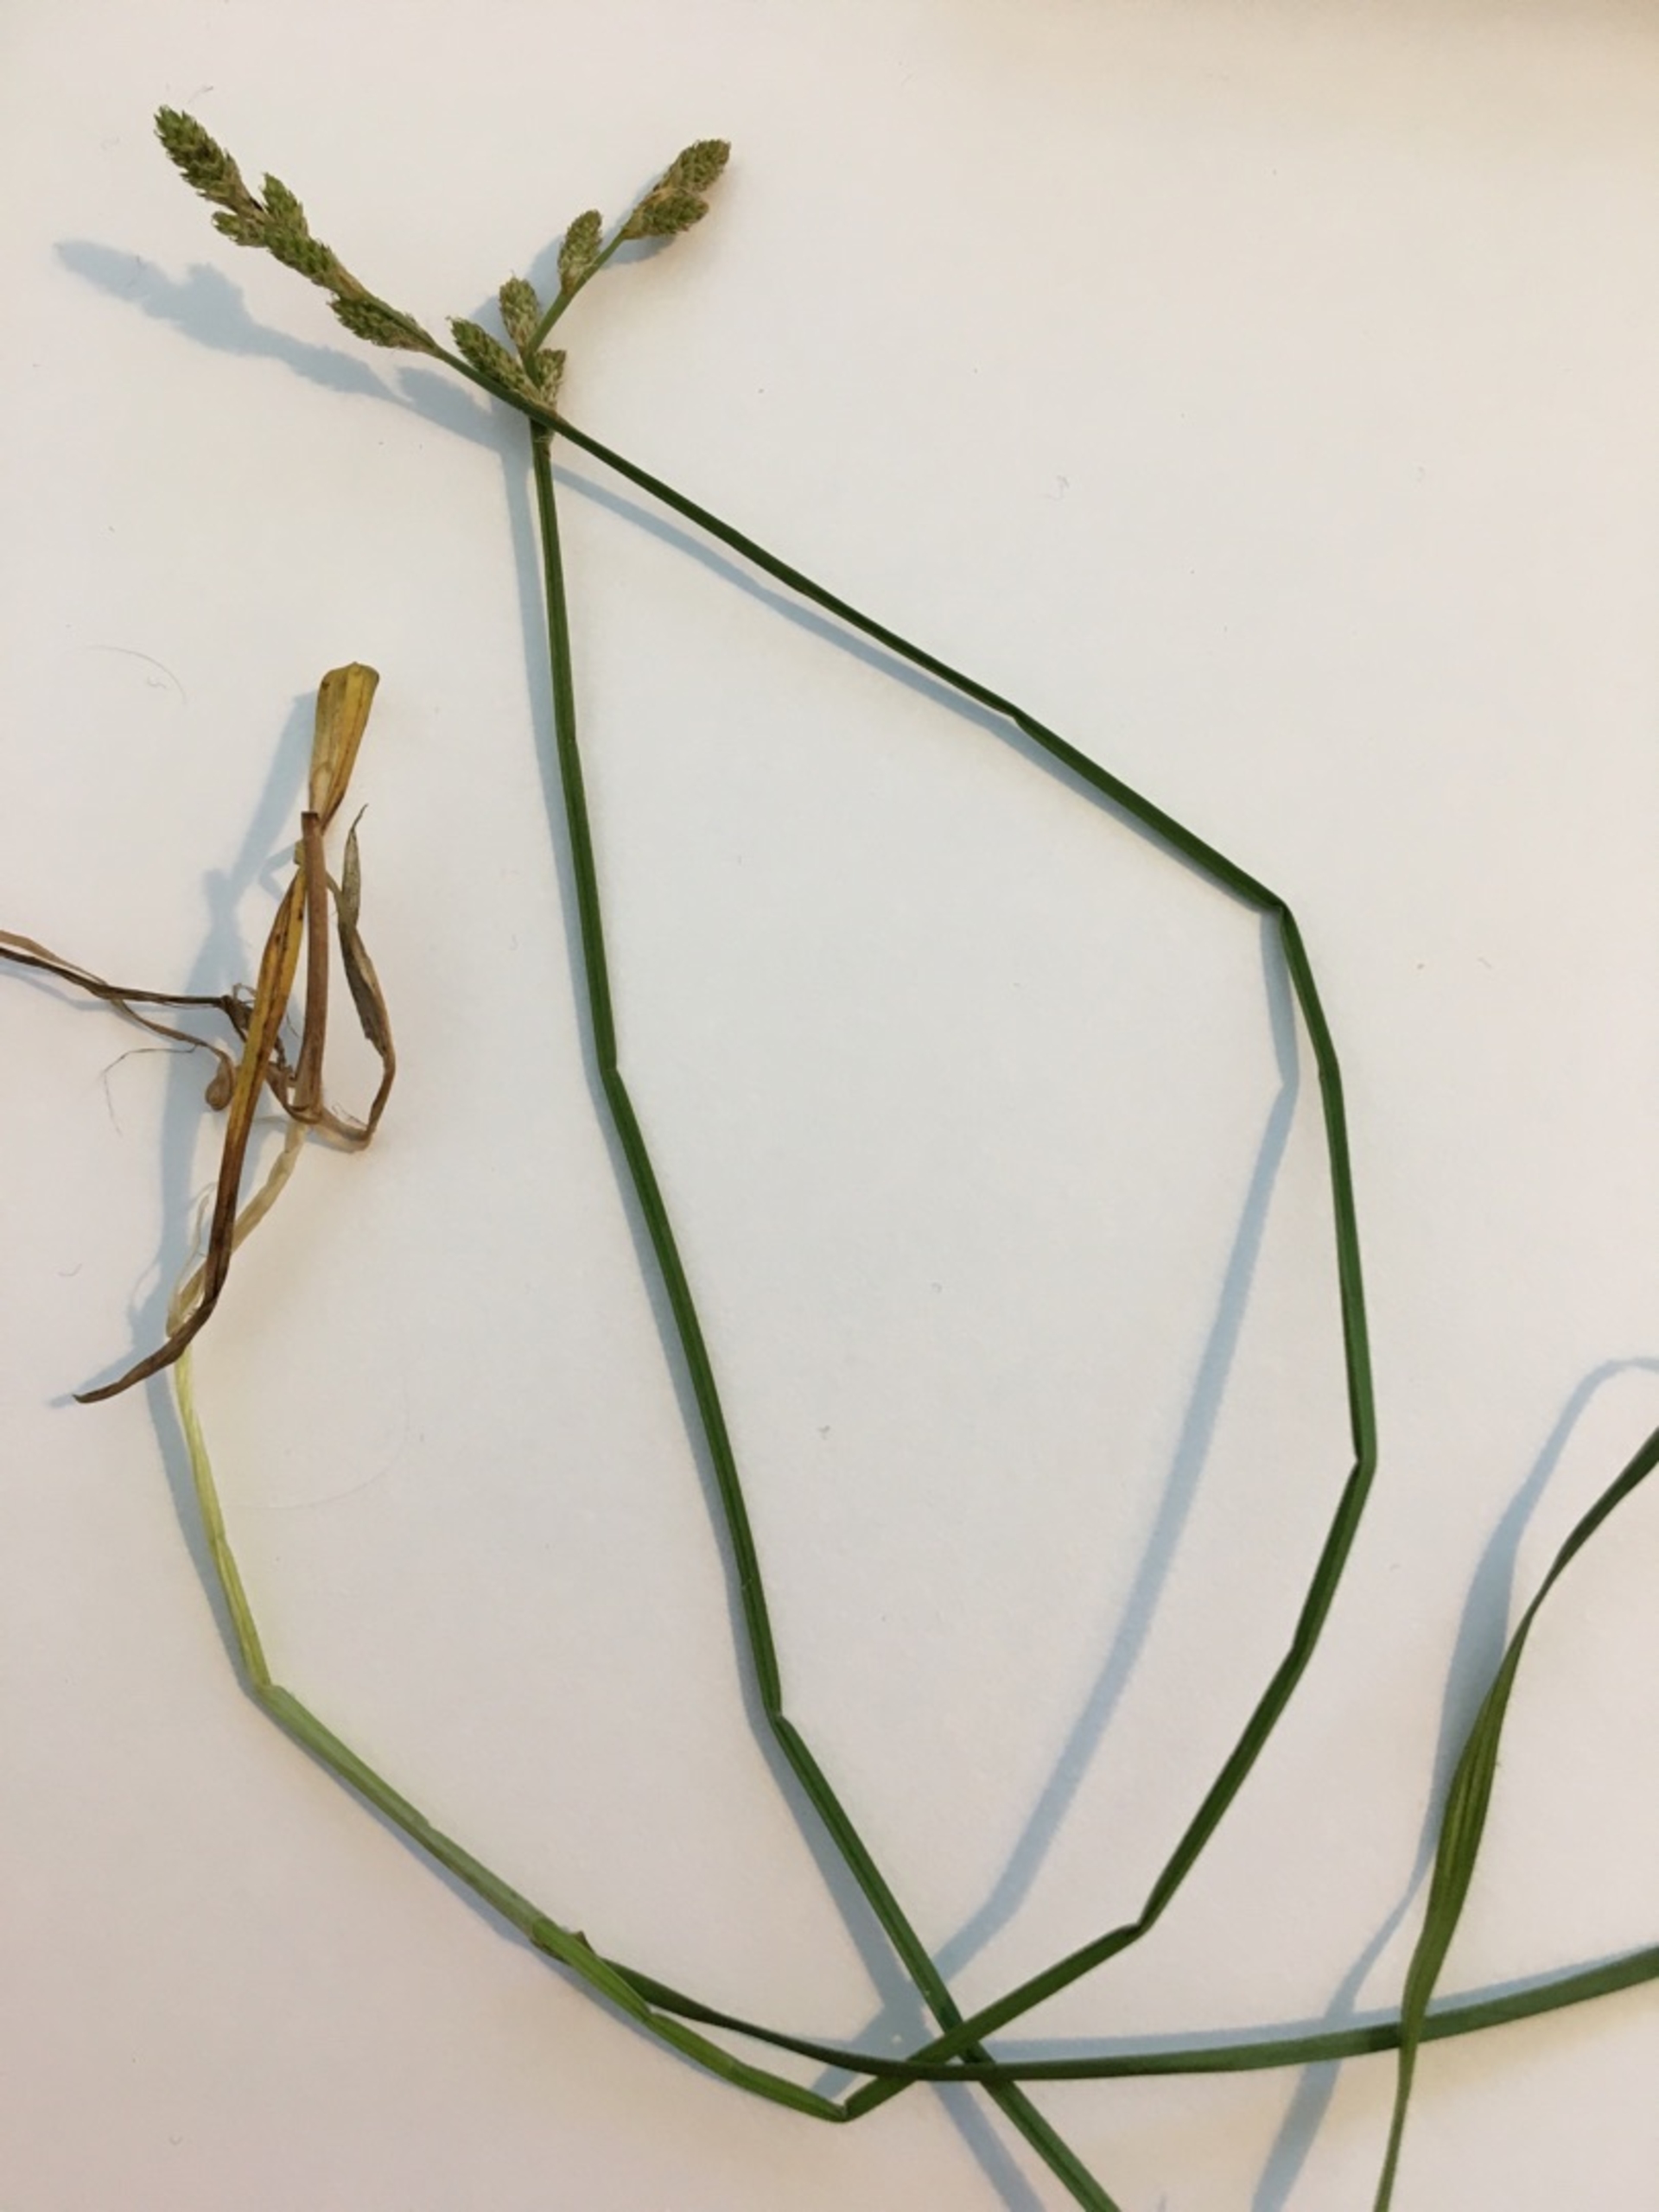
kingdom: Plantae
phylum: Tracheophyta
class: Liliopsida
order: Poales
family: Cyperaceae
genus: Carex
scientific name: Carex canescens
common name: Grå star
